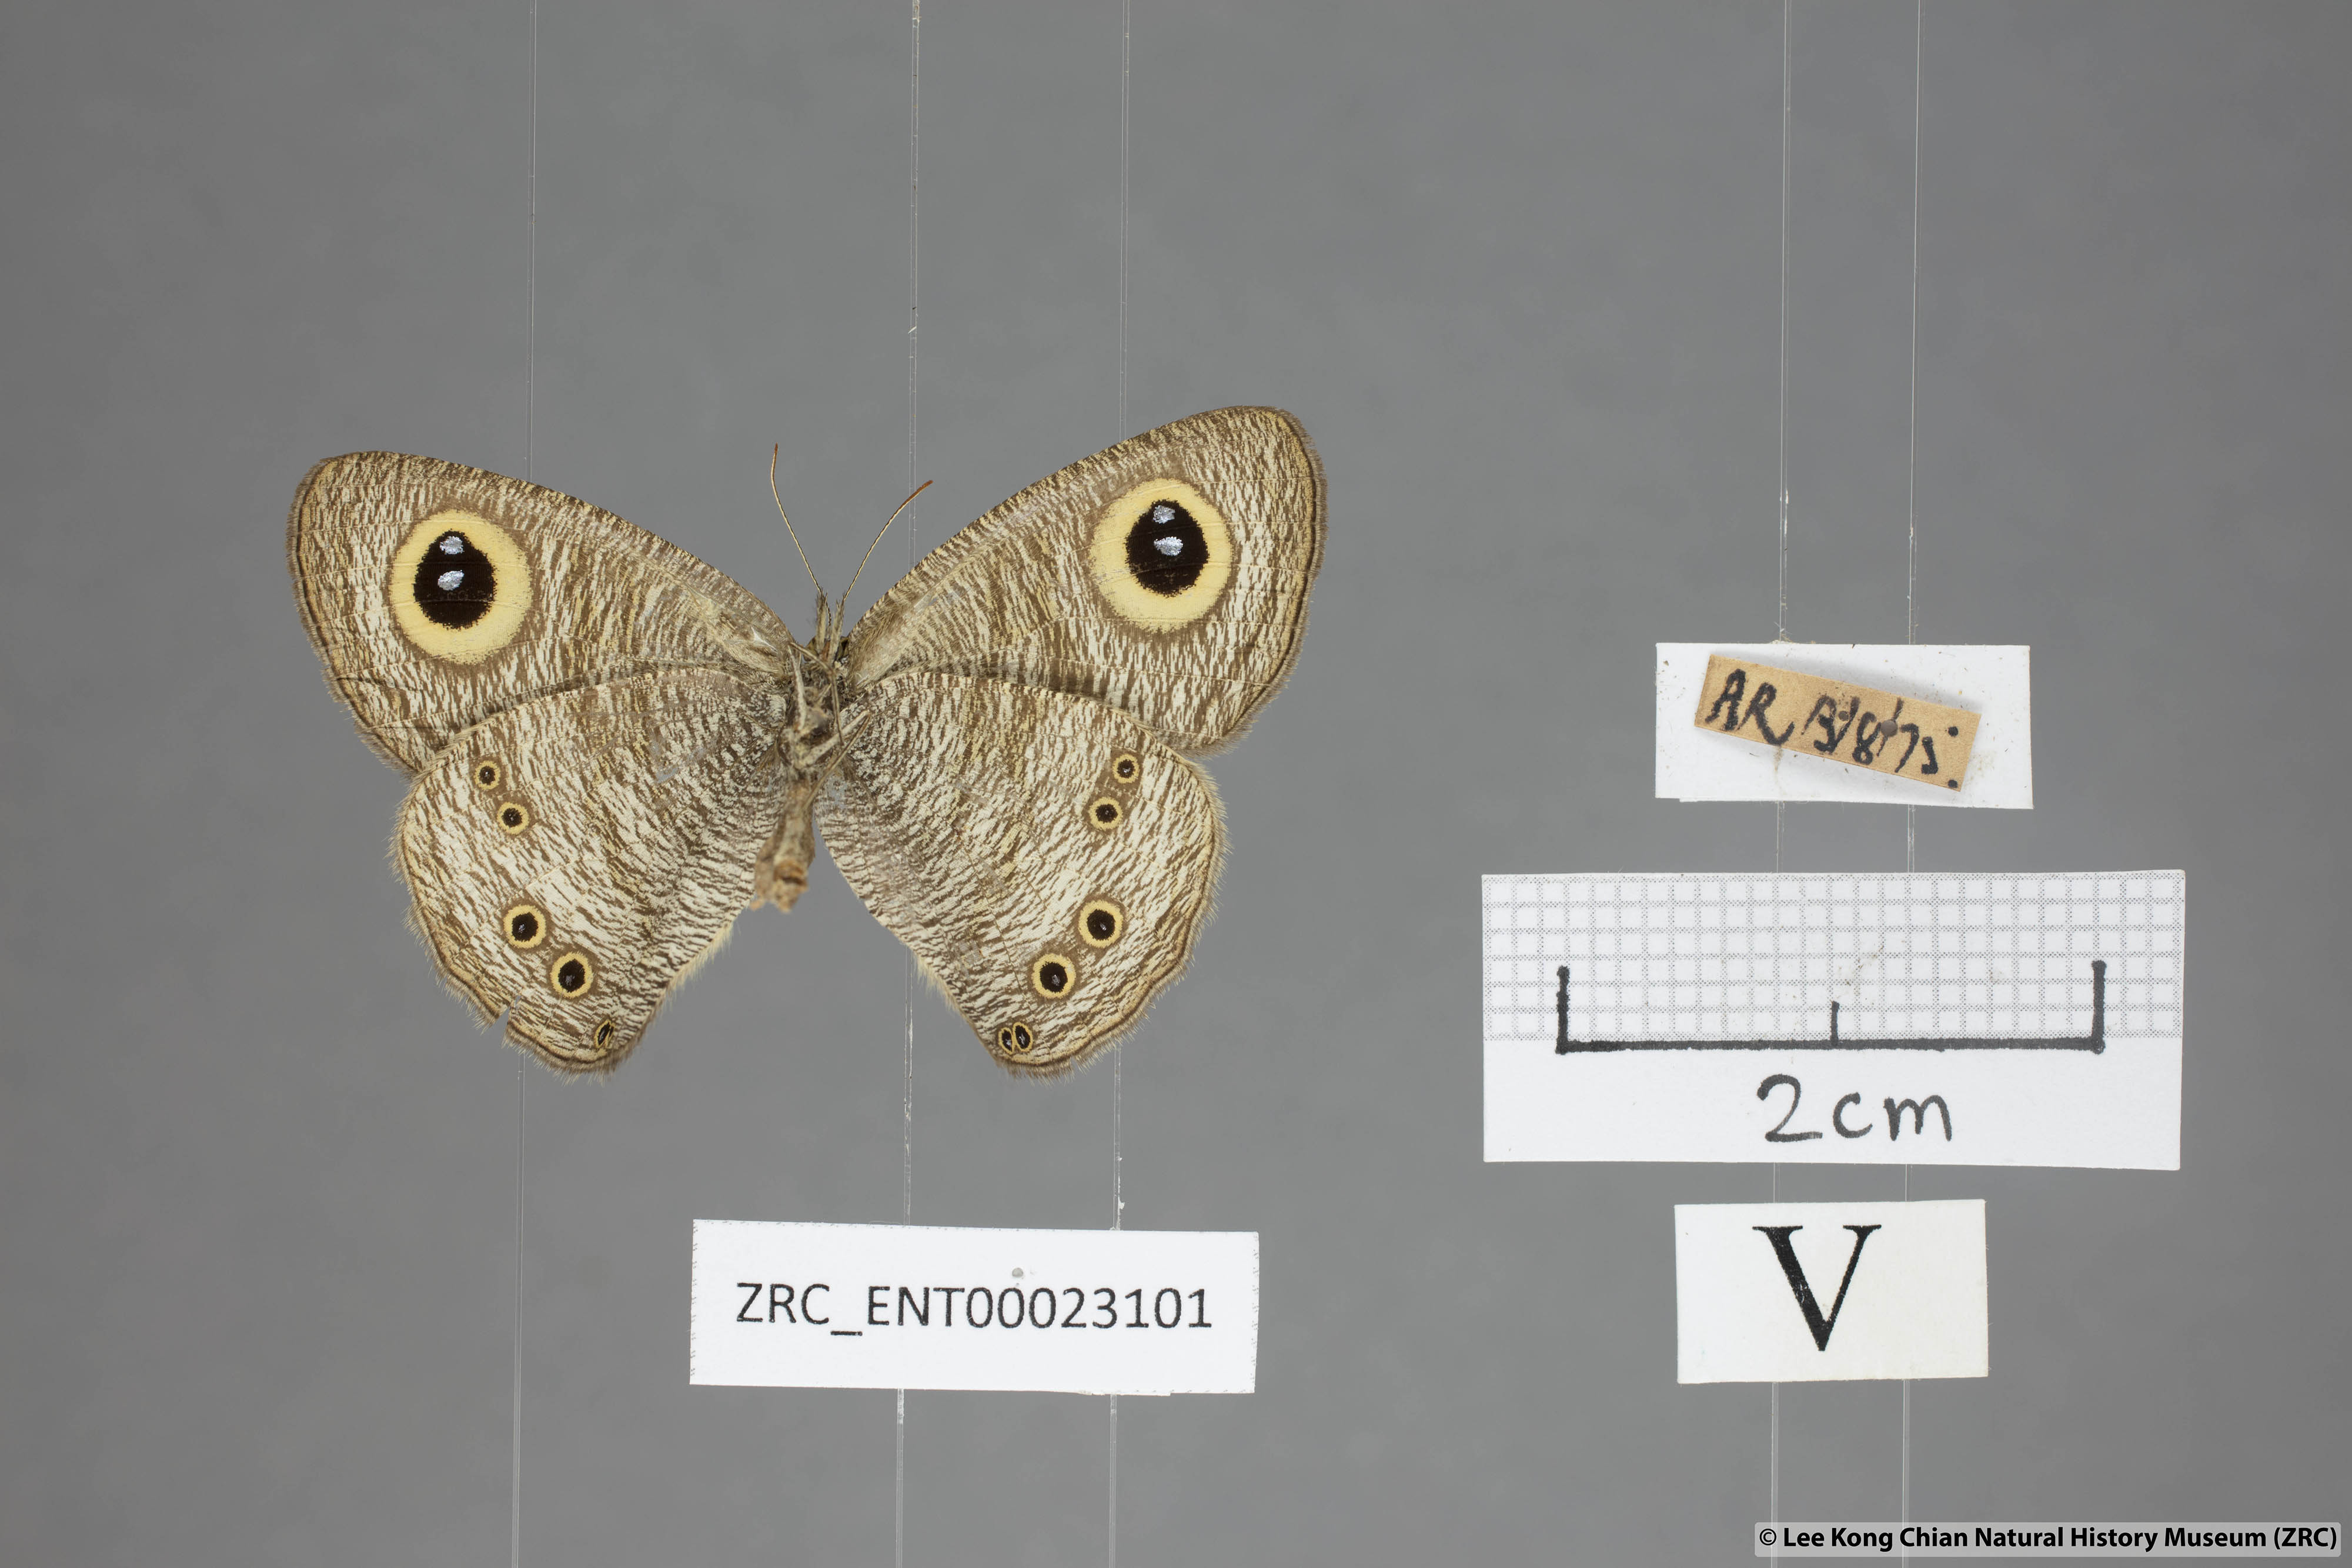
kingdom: Animalia
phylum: Arthropoda
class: Insecta
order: Lepidoptera
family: Nymphalidae
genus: Ypthima
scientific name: Ypthima baldus
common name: Common five-ring
